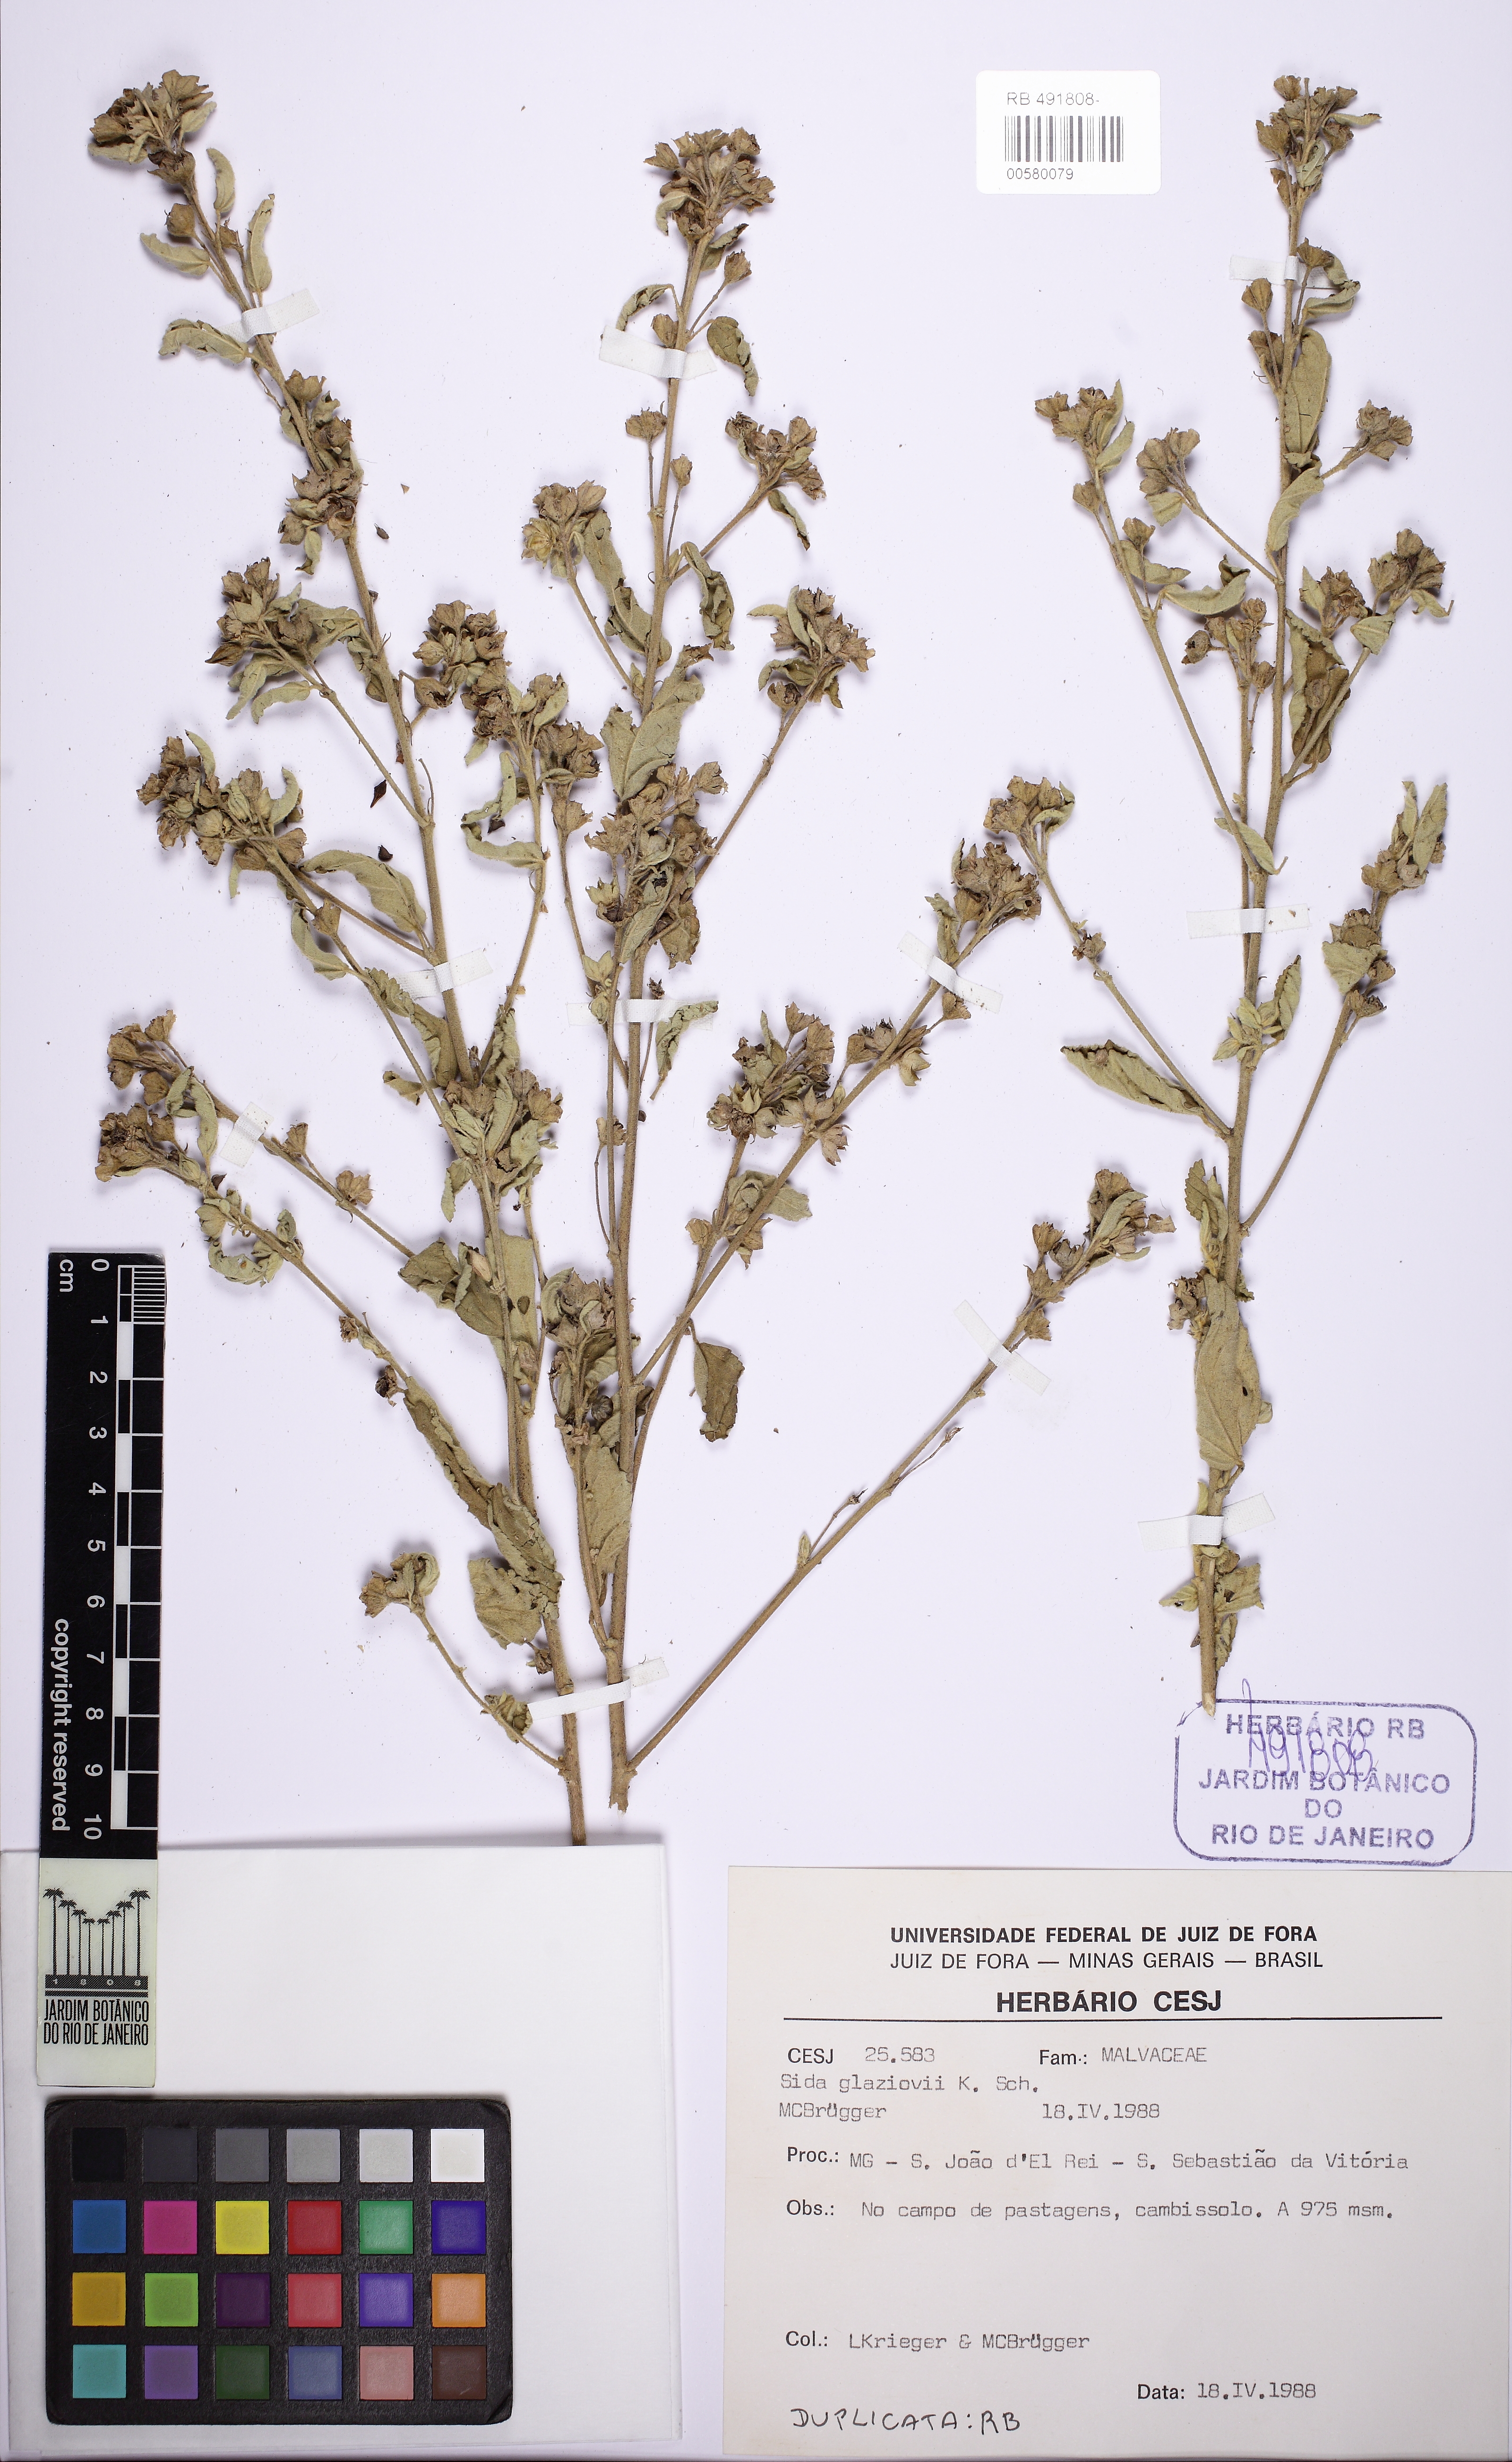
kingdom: Plantae
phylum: Tracheophyta
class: Magnoliopsida
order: Malvales
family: Malvaceae
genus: Sida
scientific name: Sida glaziovii
